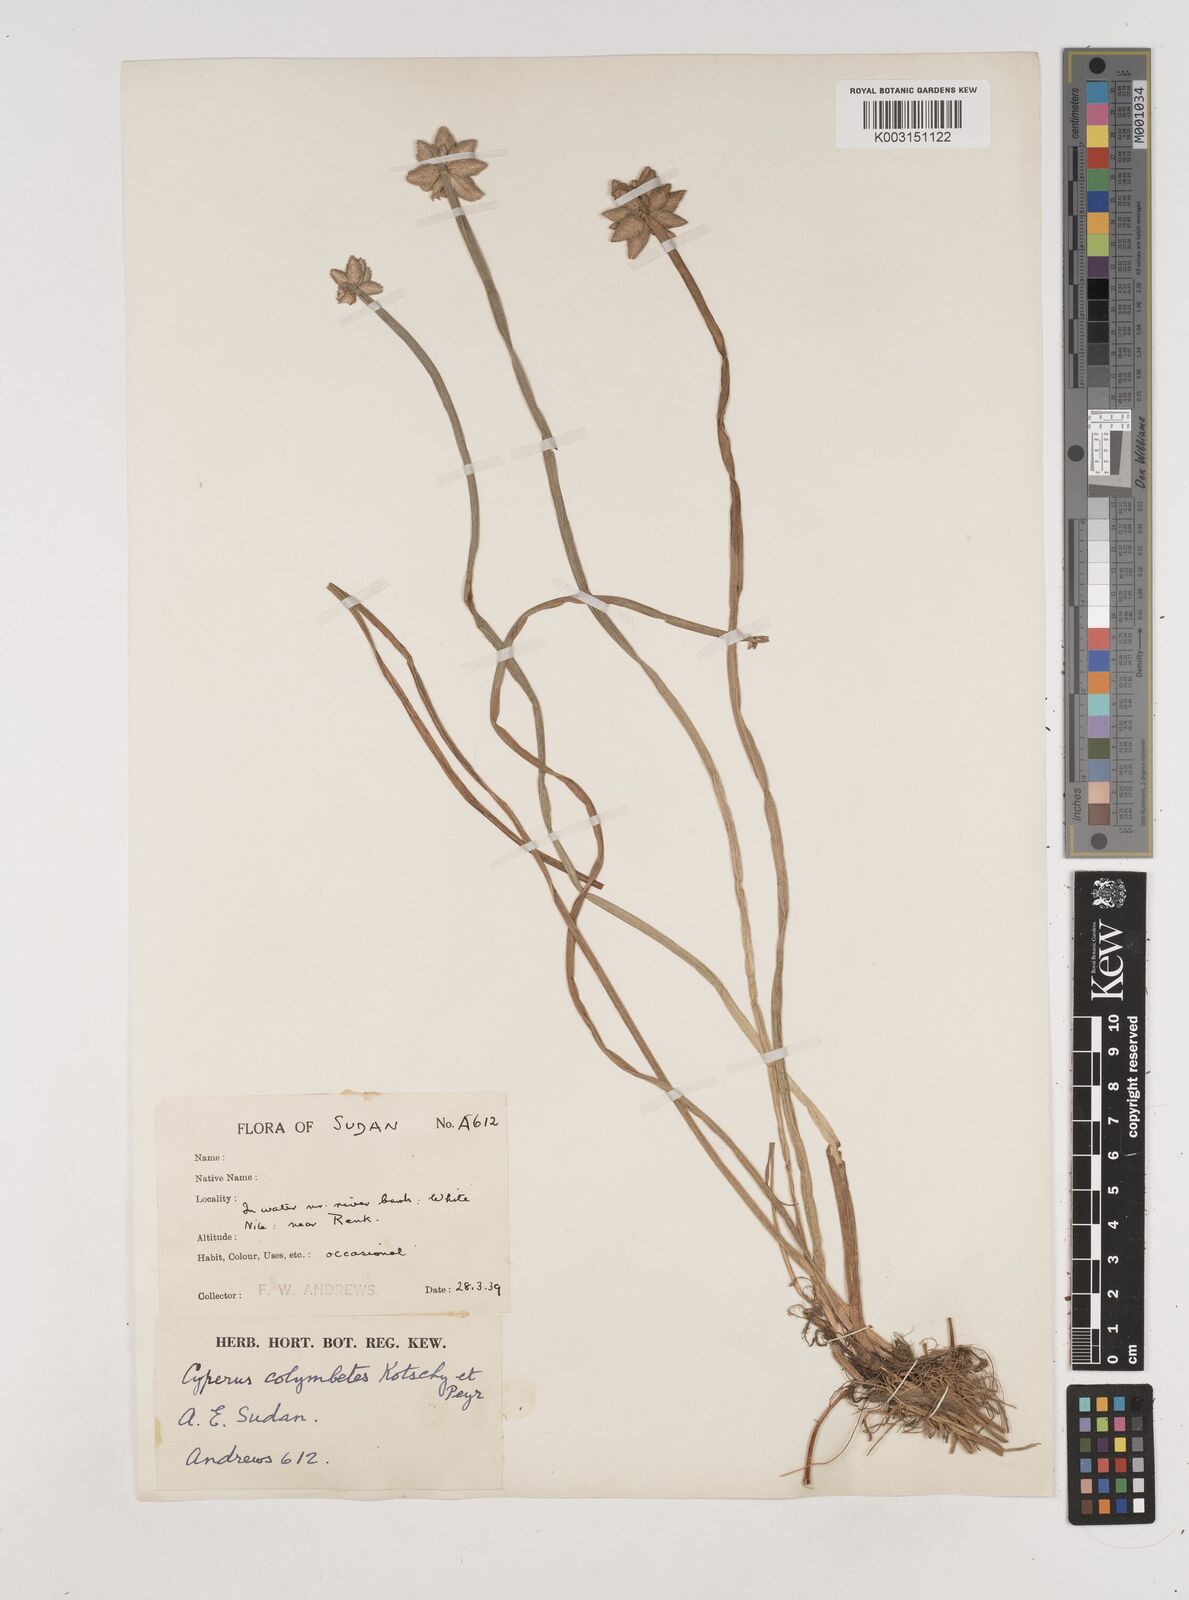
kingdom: Plantae
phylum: Tracheophyta
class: Liliopsida
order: Poales
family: Cyperaceae
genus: Cyperus
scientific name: Cyperus colymbetes
